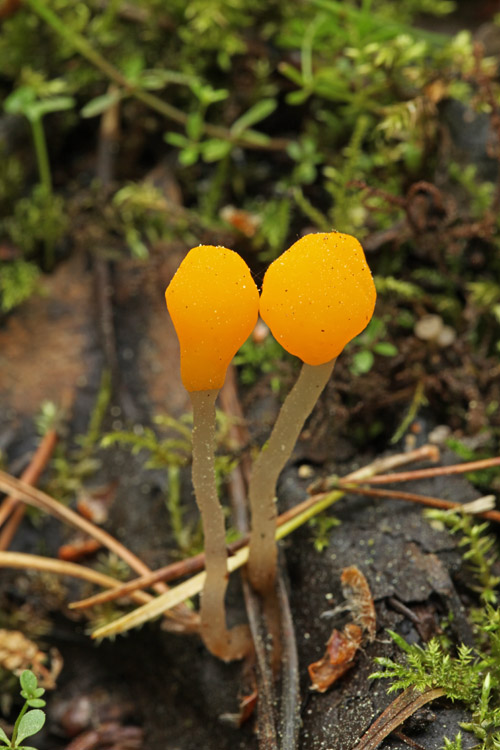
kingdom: Fungi
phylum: Ascomycota
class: Leotiomycetes
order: Helotiales
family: Cenangiaceae
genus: Mitrula
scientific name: Mitrula paludosa
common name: gul nøkketunge
